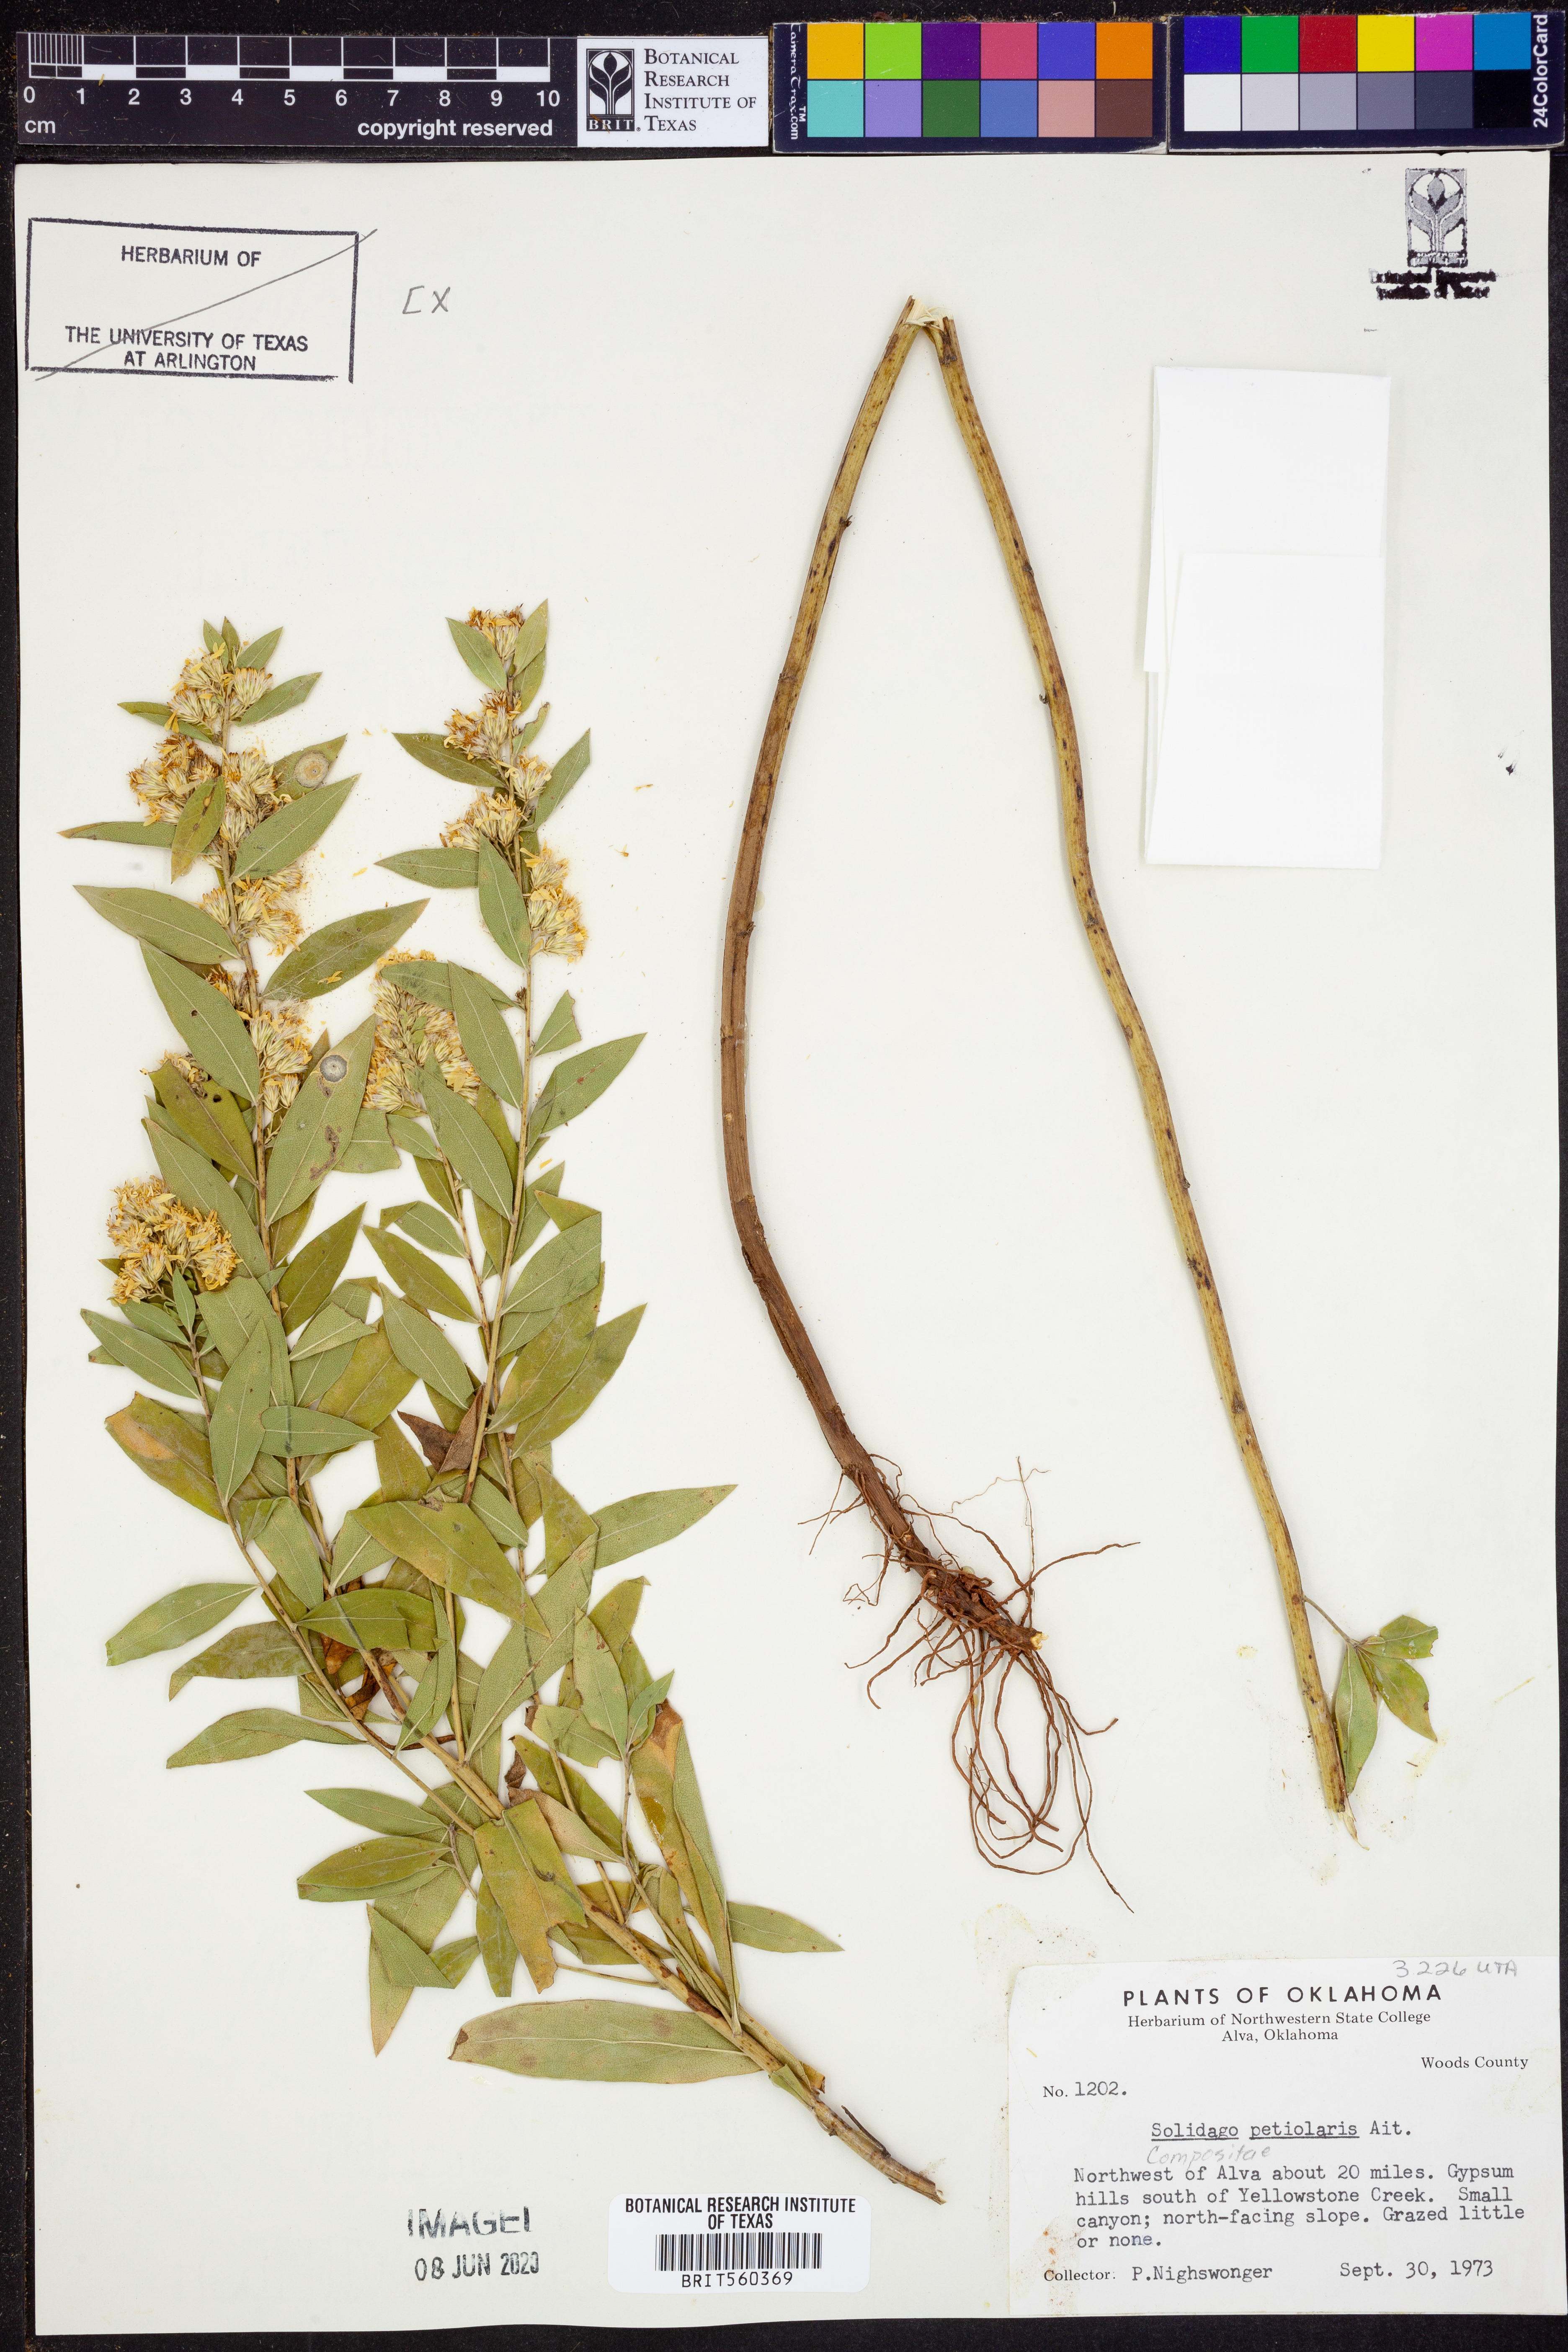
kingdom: Plantae
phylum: Tracheophyta
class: Magnoliopsida
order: Asterales
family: Asteraceae
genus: Solidago
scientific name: Solidago petiolaris
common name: Downy ragged goldenrod
